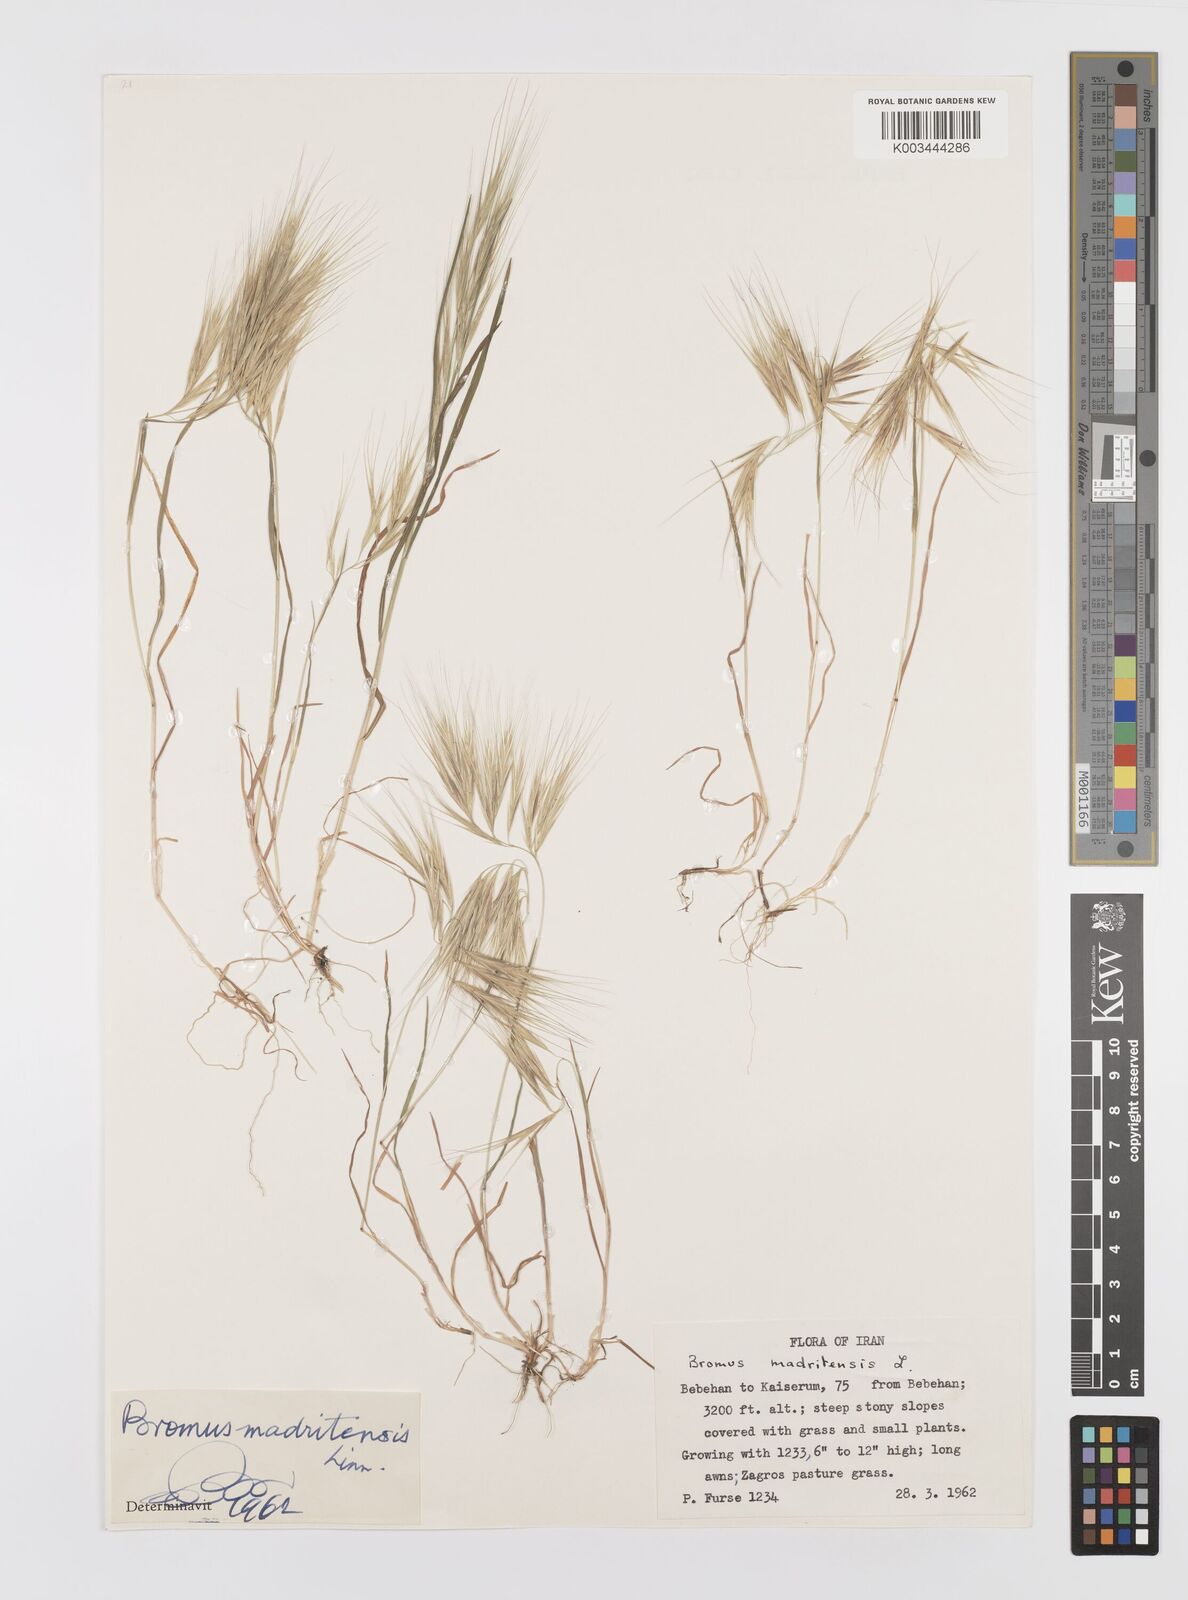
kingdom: Plantae
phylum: Tracheophyta
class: Liliopsida
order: Poales
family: Poaceae
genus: Bromus
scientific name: Bromus madritensis
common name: Compact brome
